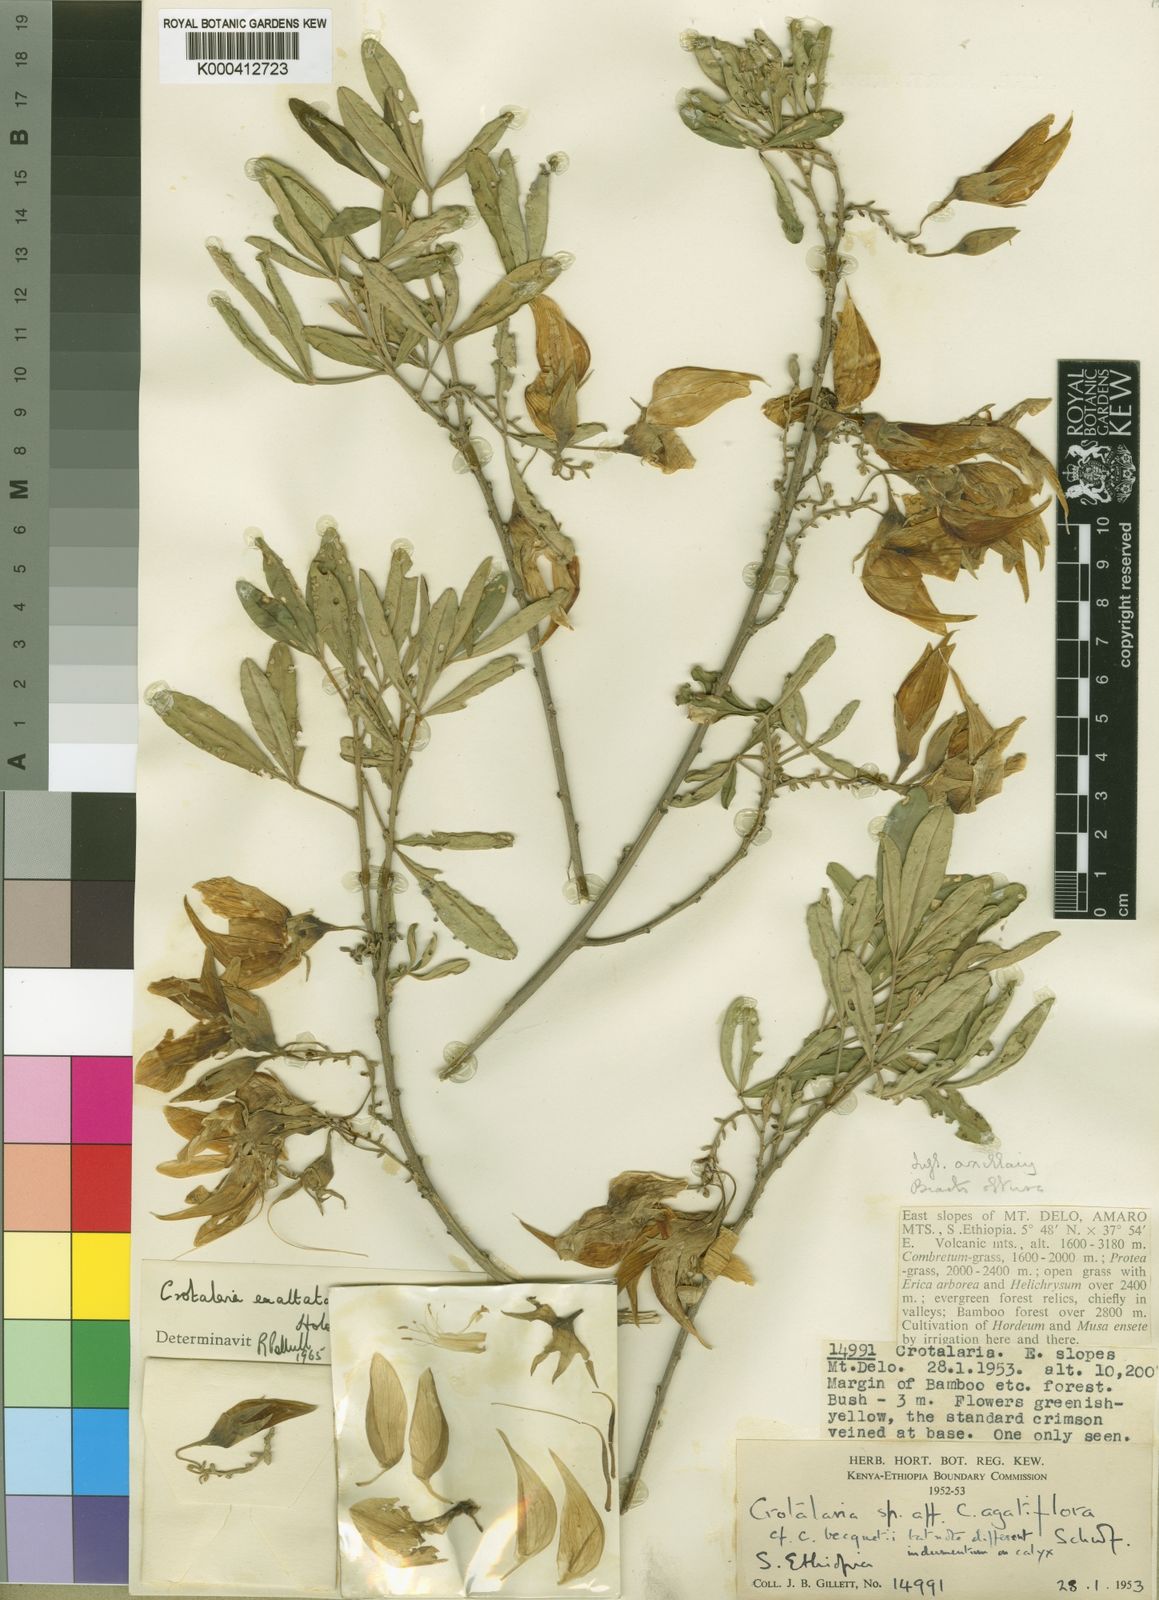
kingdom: Plantae
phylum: Tracheophyta
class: Magnoliopsida
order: Fabales
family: Fabaceae
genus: Crotalaria
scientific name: Crotalaria exaltata
